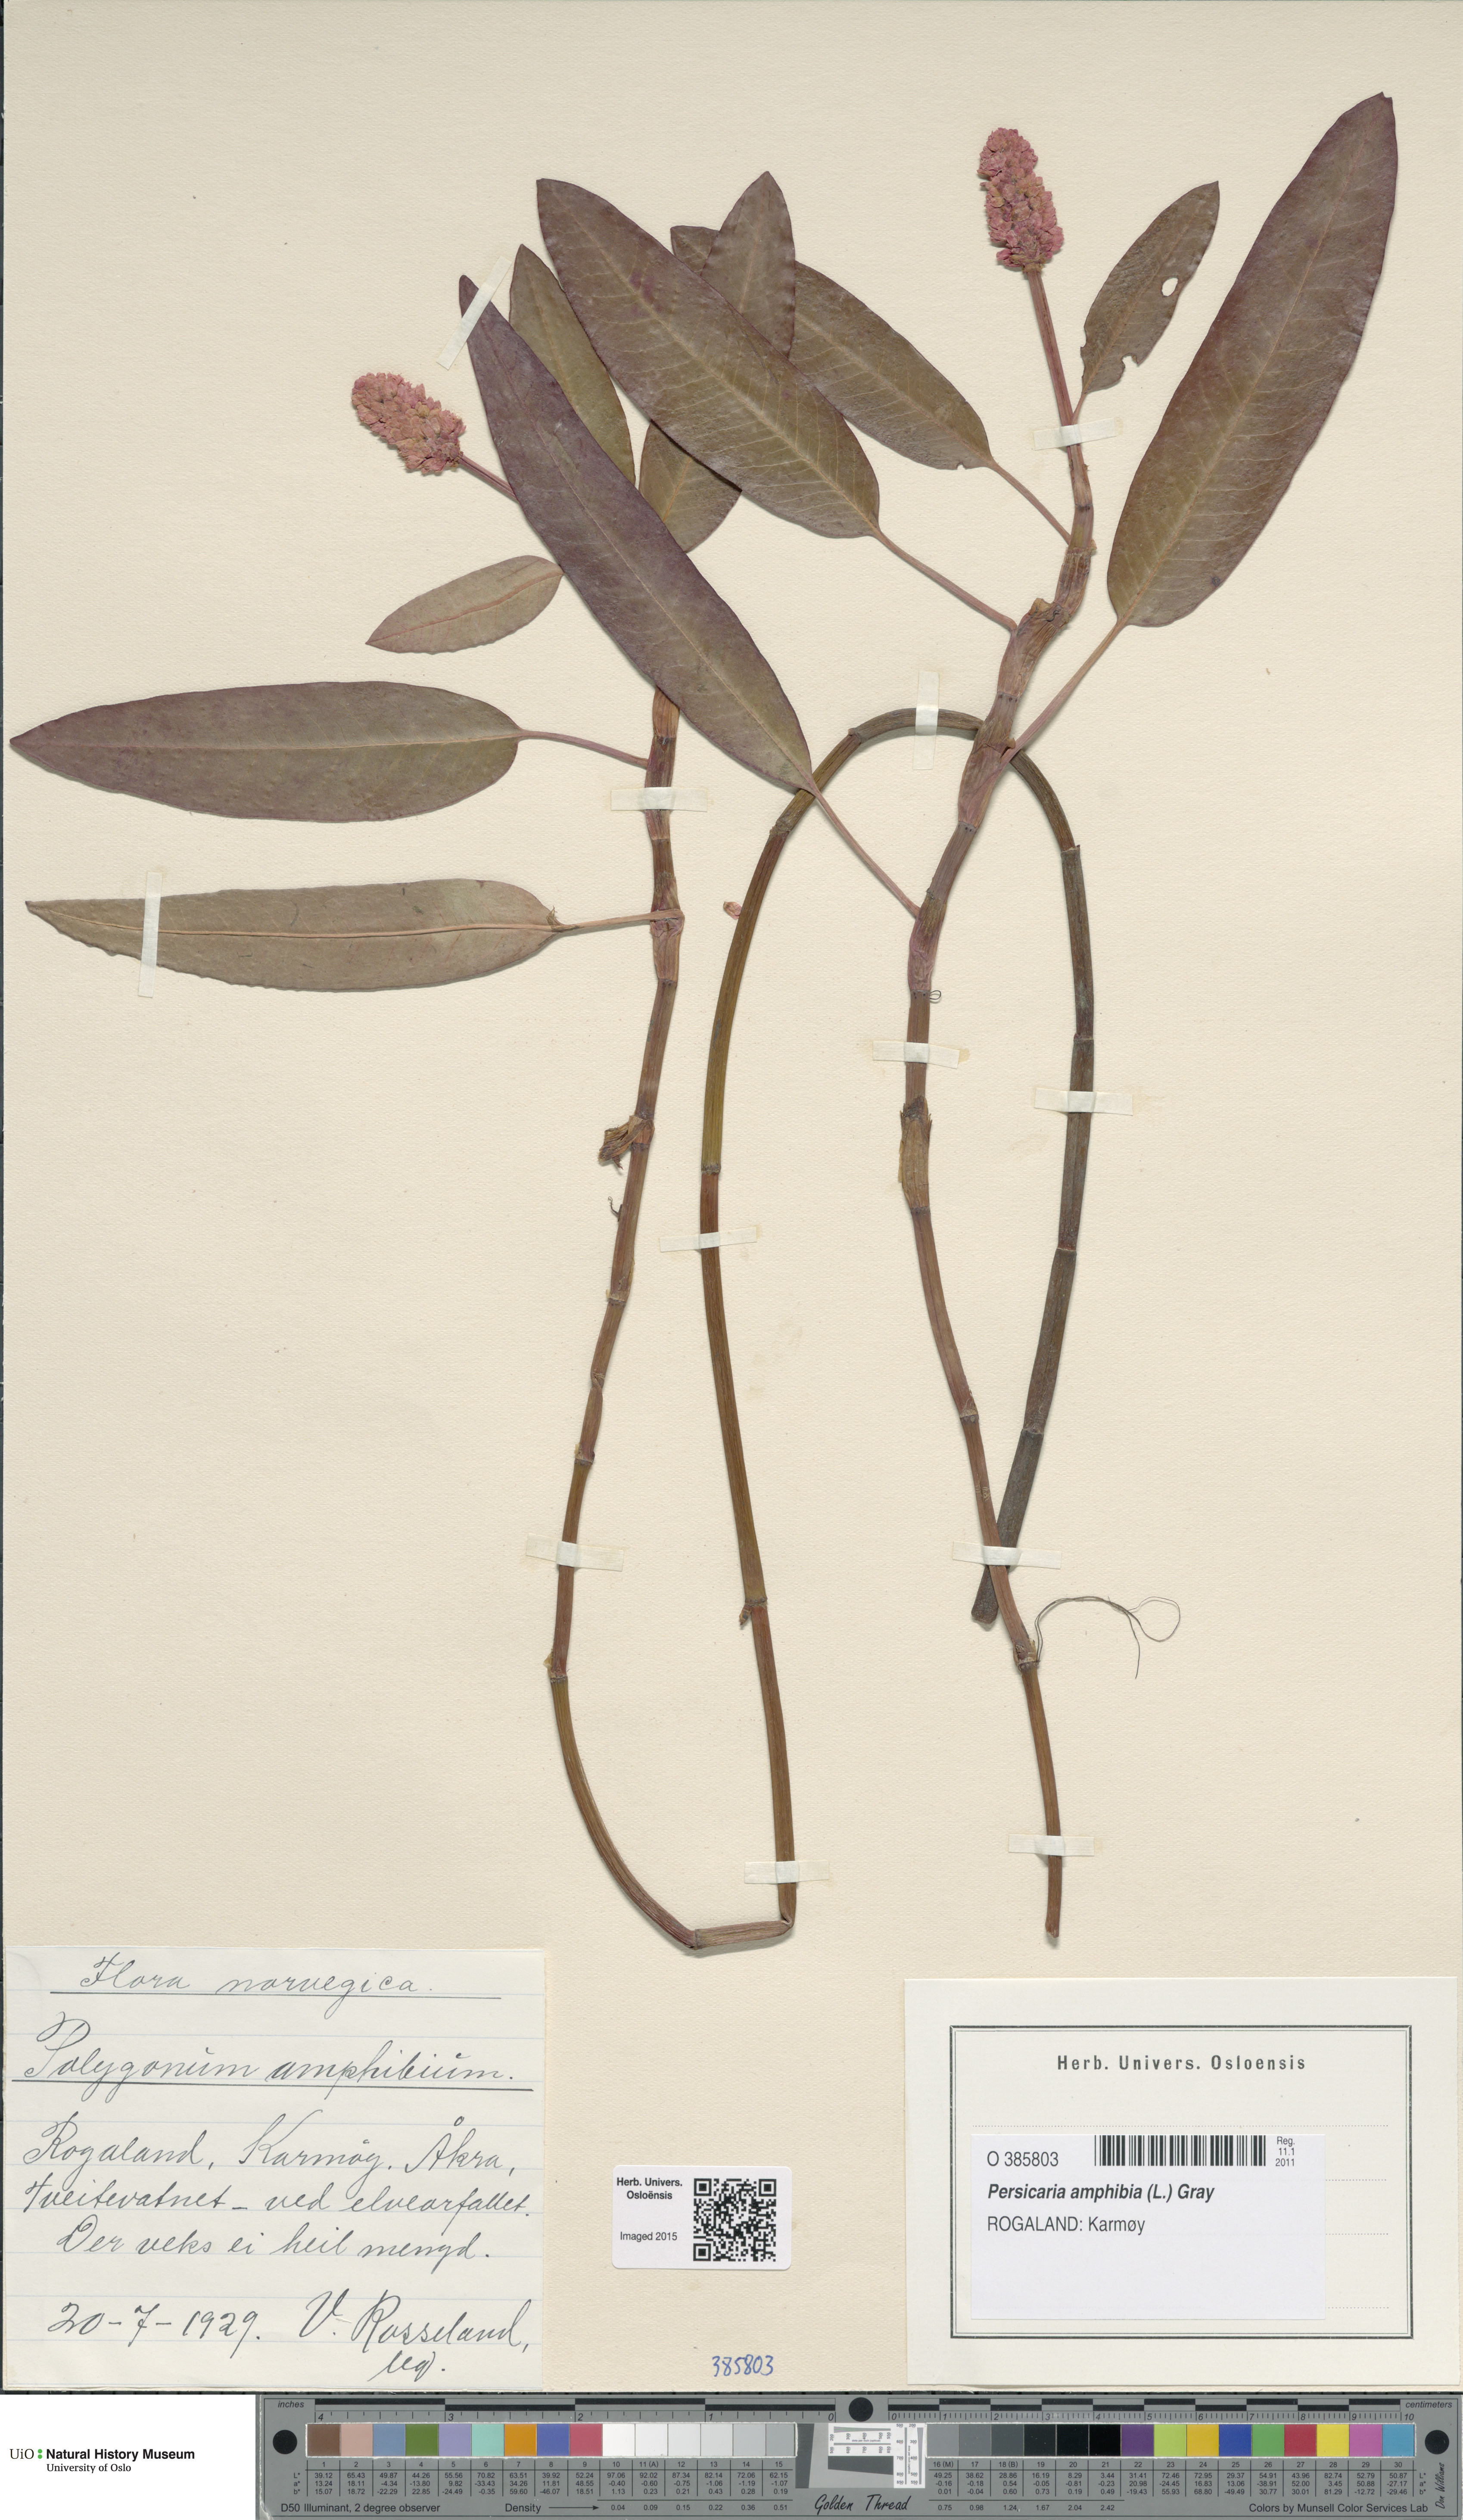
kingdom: Plantae
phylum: Tracheophyta
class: Magnoliopsida
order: Caryophyllales
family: Polygonaceae
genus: Persicaria
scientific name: Persicaria amphibia
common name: Amphibious bistort
